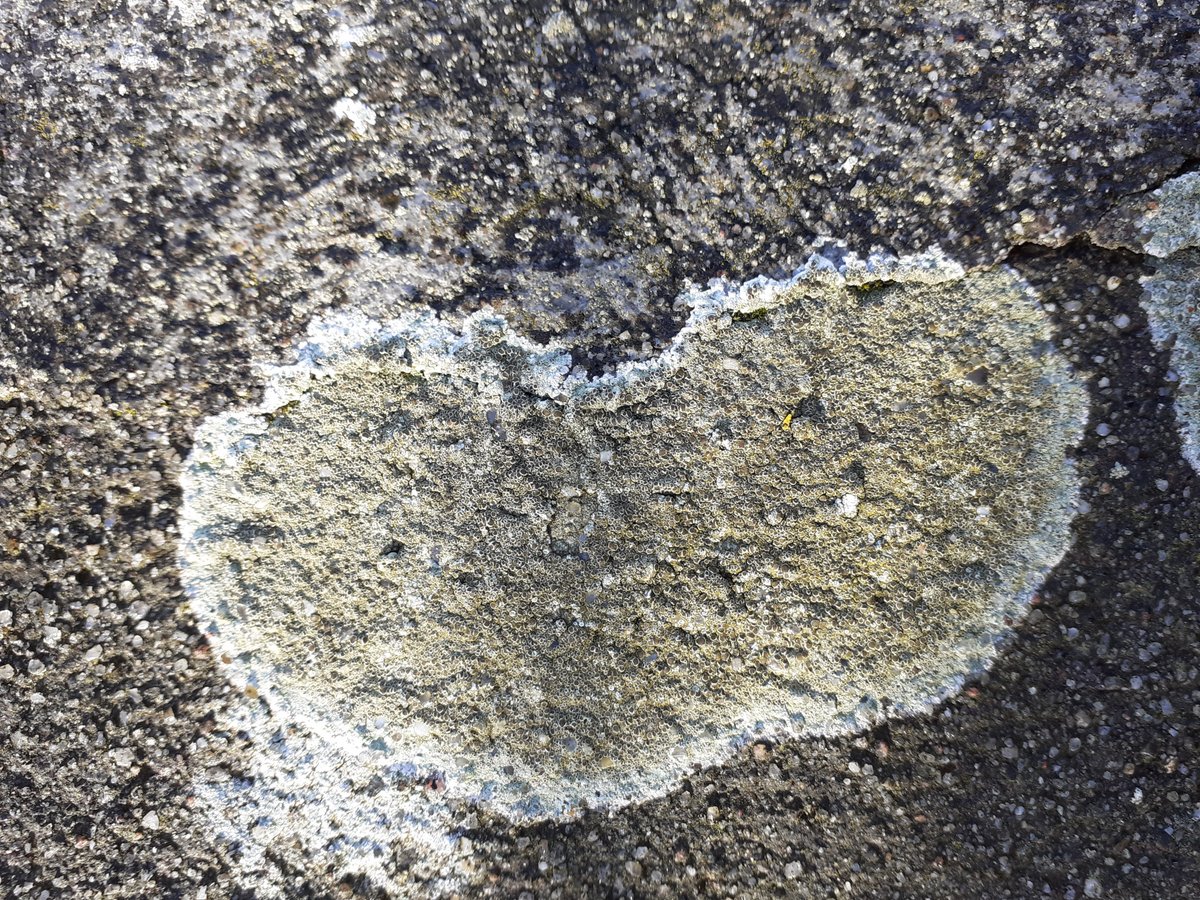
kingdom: Fungi
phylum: Ascomycota
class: Lecanoromycetes
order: Lecanorales
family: Lecanoraceae
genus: Lecanora
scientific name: Lecanora campestris
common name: mur-kantskivelav
